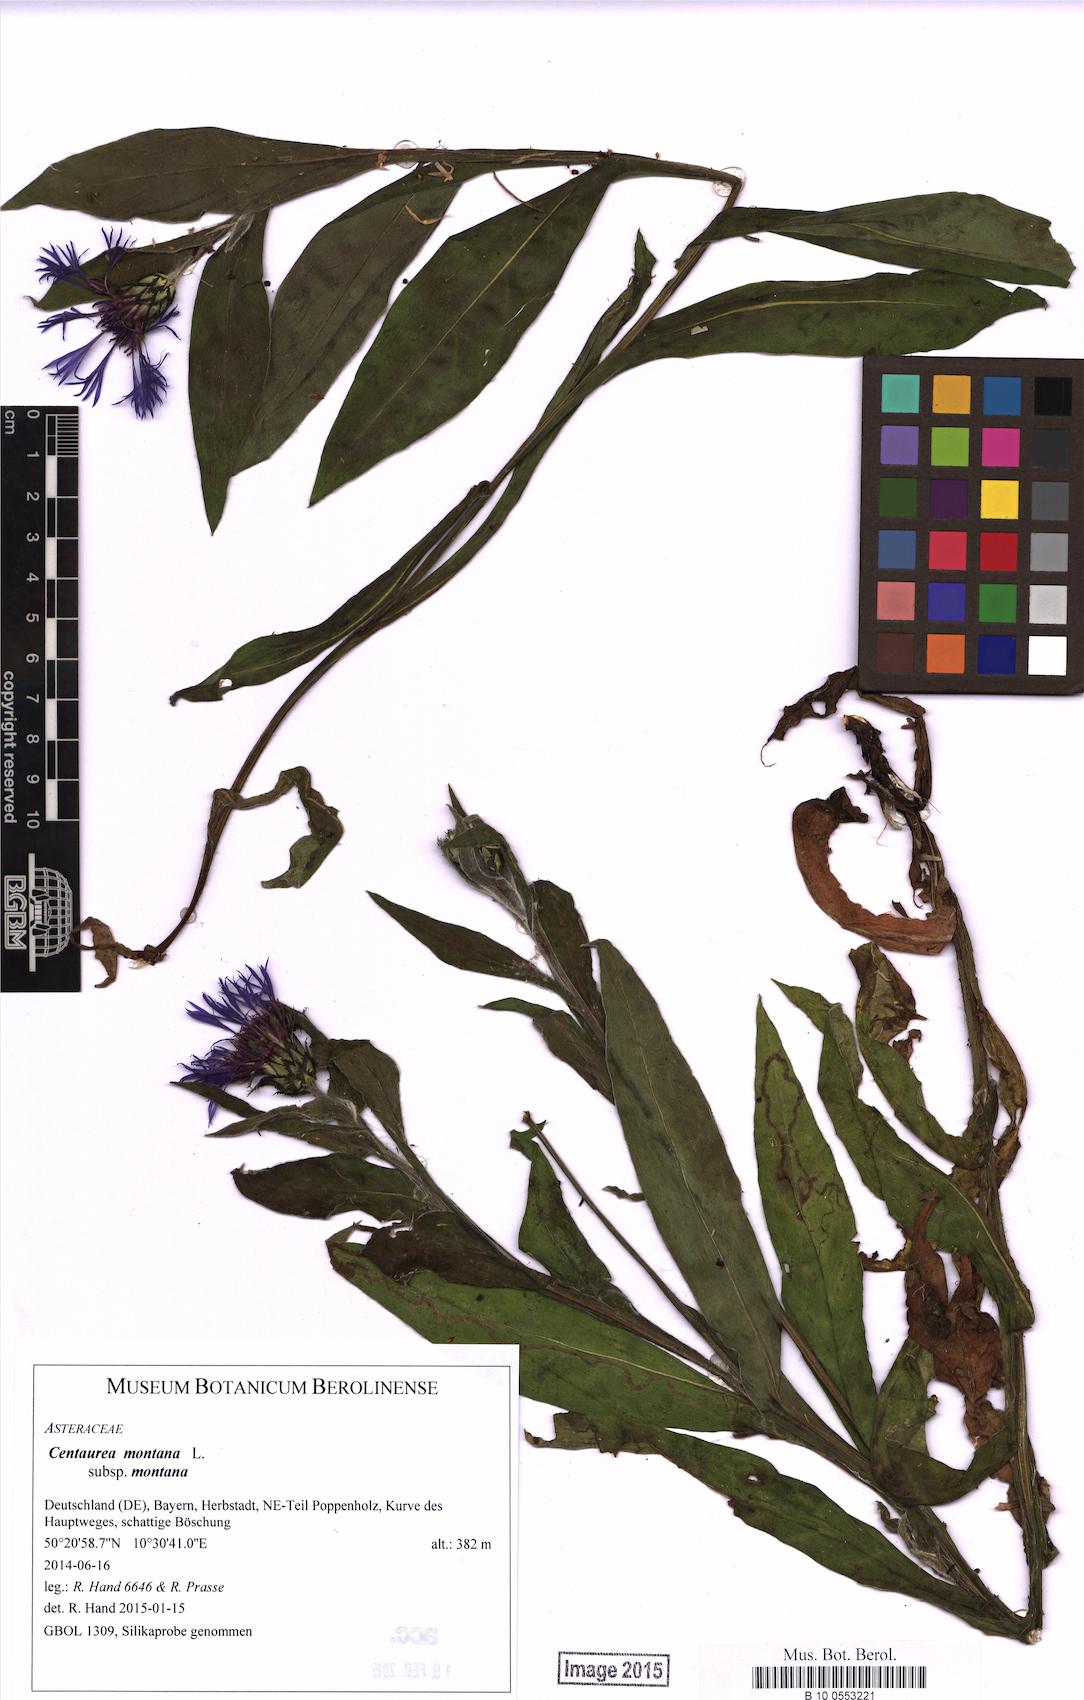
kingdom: Plantae
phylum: Tracheophyta
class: Magnoliopsida
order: Asterales
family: Asteraceae
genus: Centaurea
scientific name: Centaurea montana
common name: Perennial cornflower
